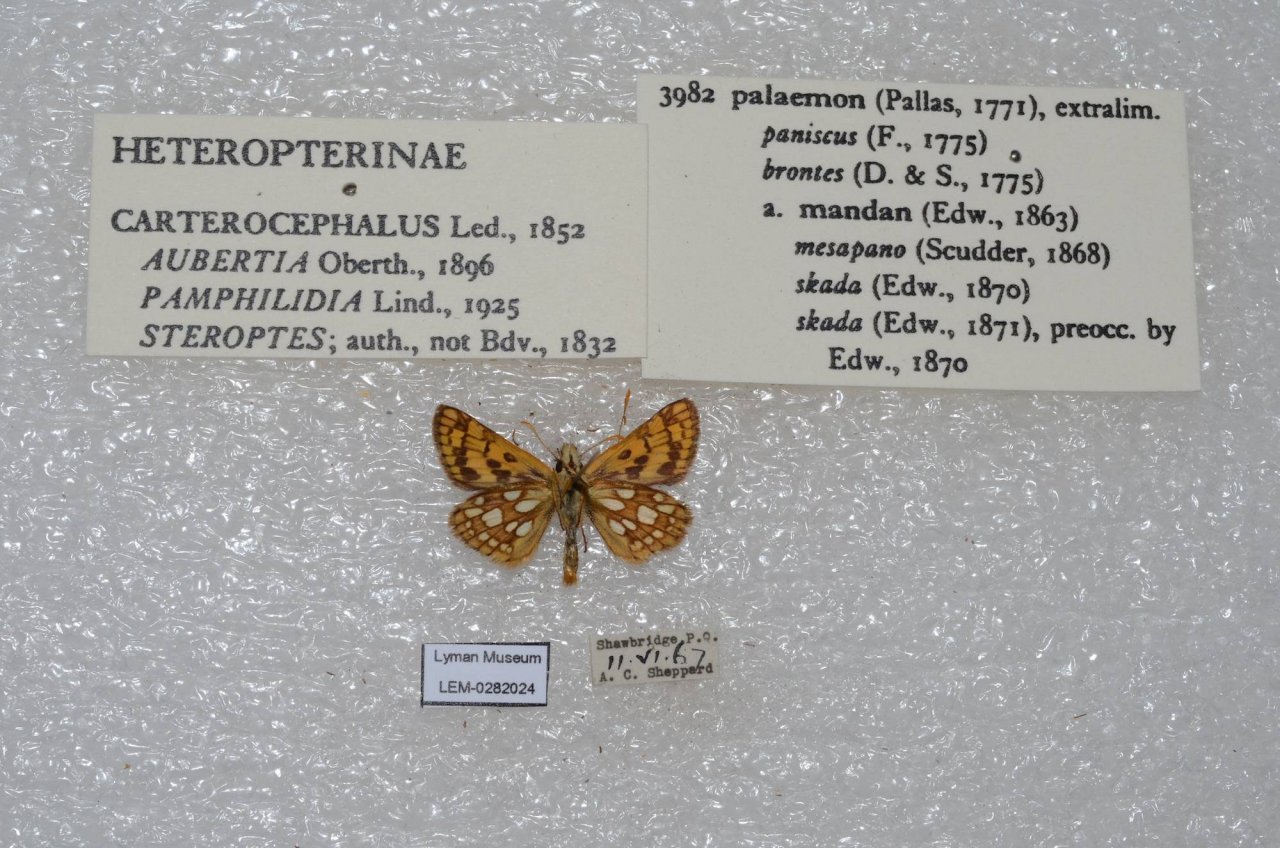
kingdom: Animalia
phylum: Arthropoda
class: Insecta
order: Lepidoptera
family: Hesperiidae
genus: Carterocephalus
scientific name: Carterocephalus palaemon
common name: Chequered Skipper
